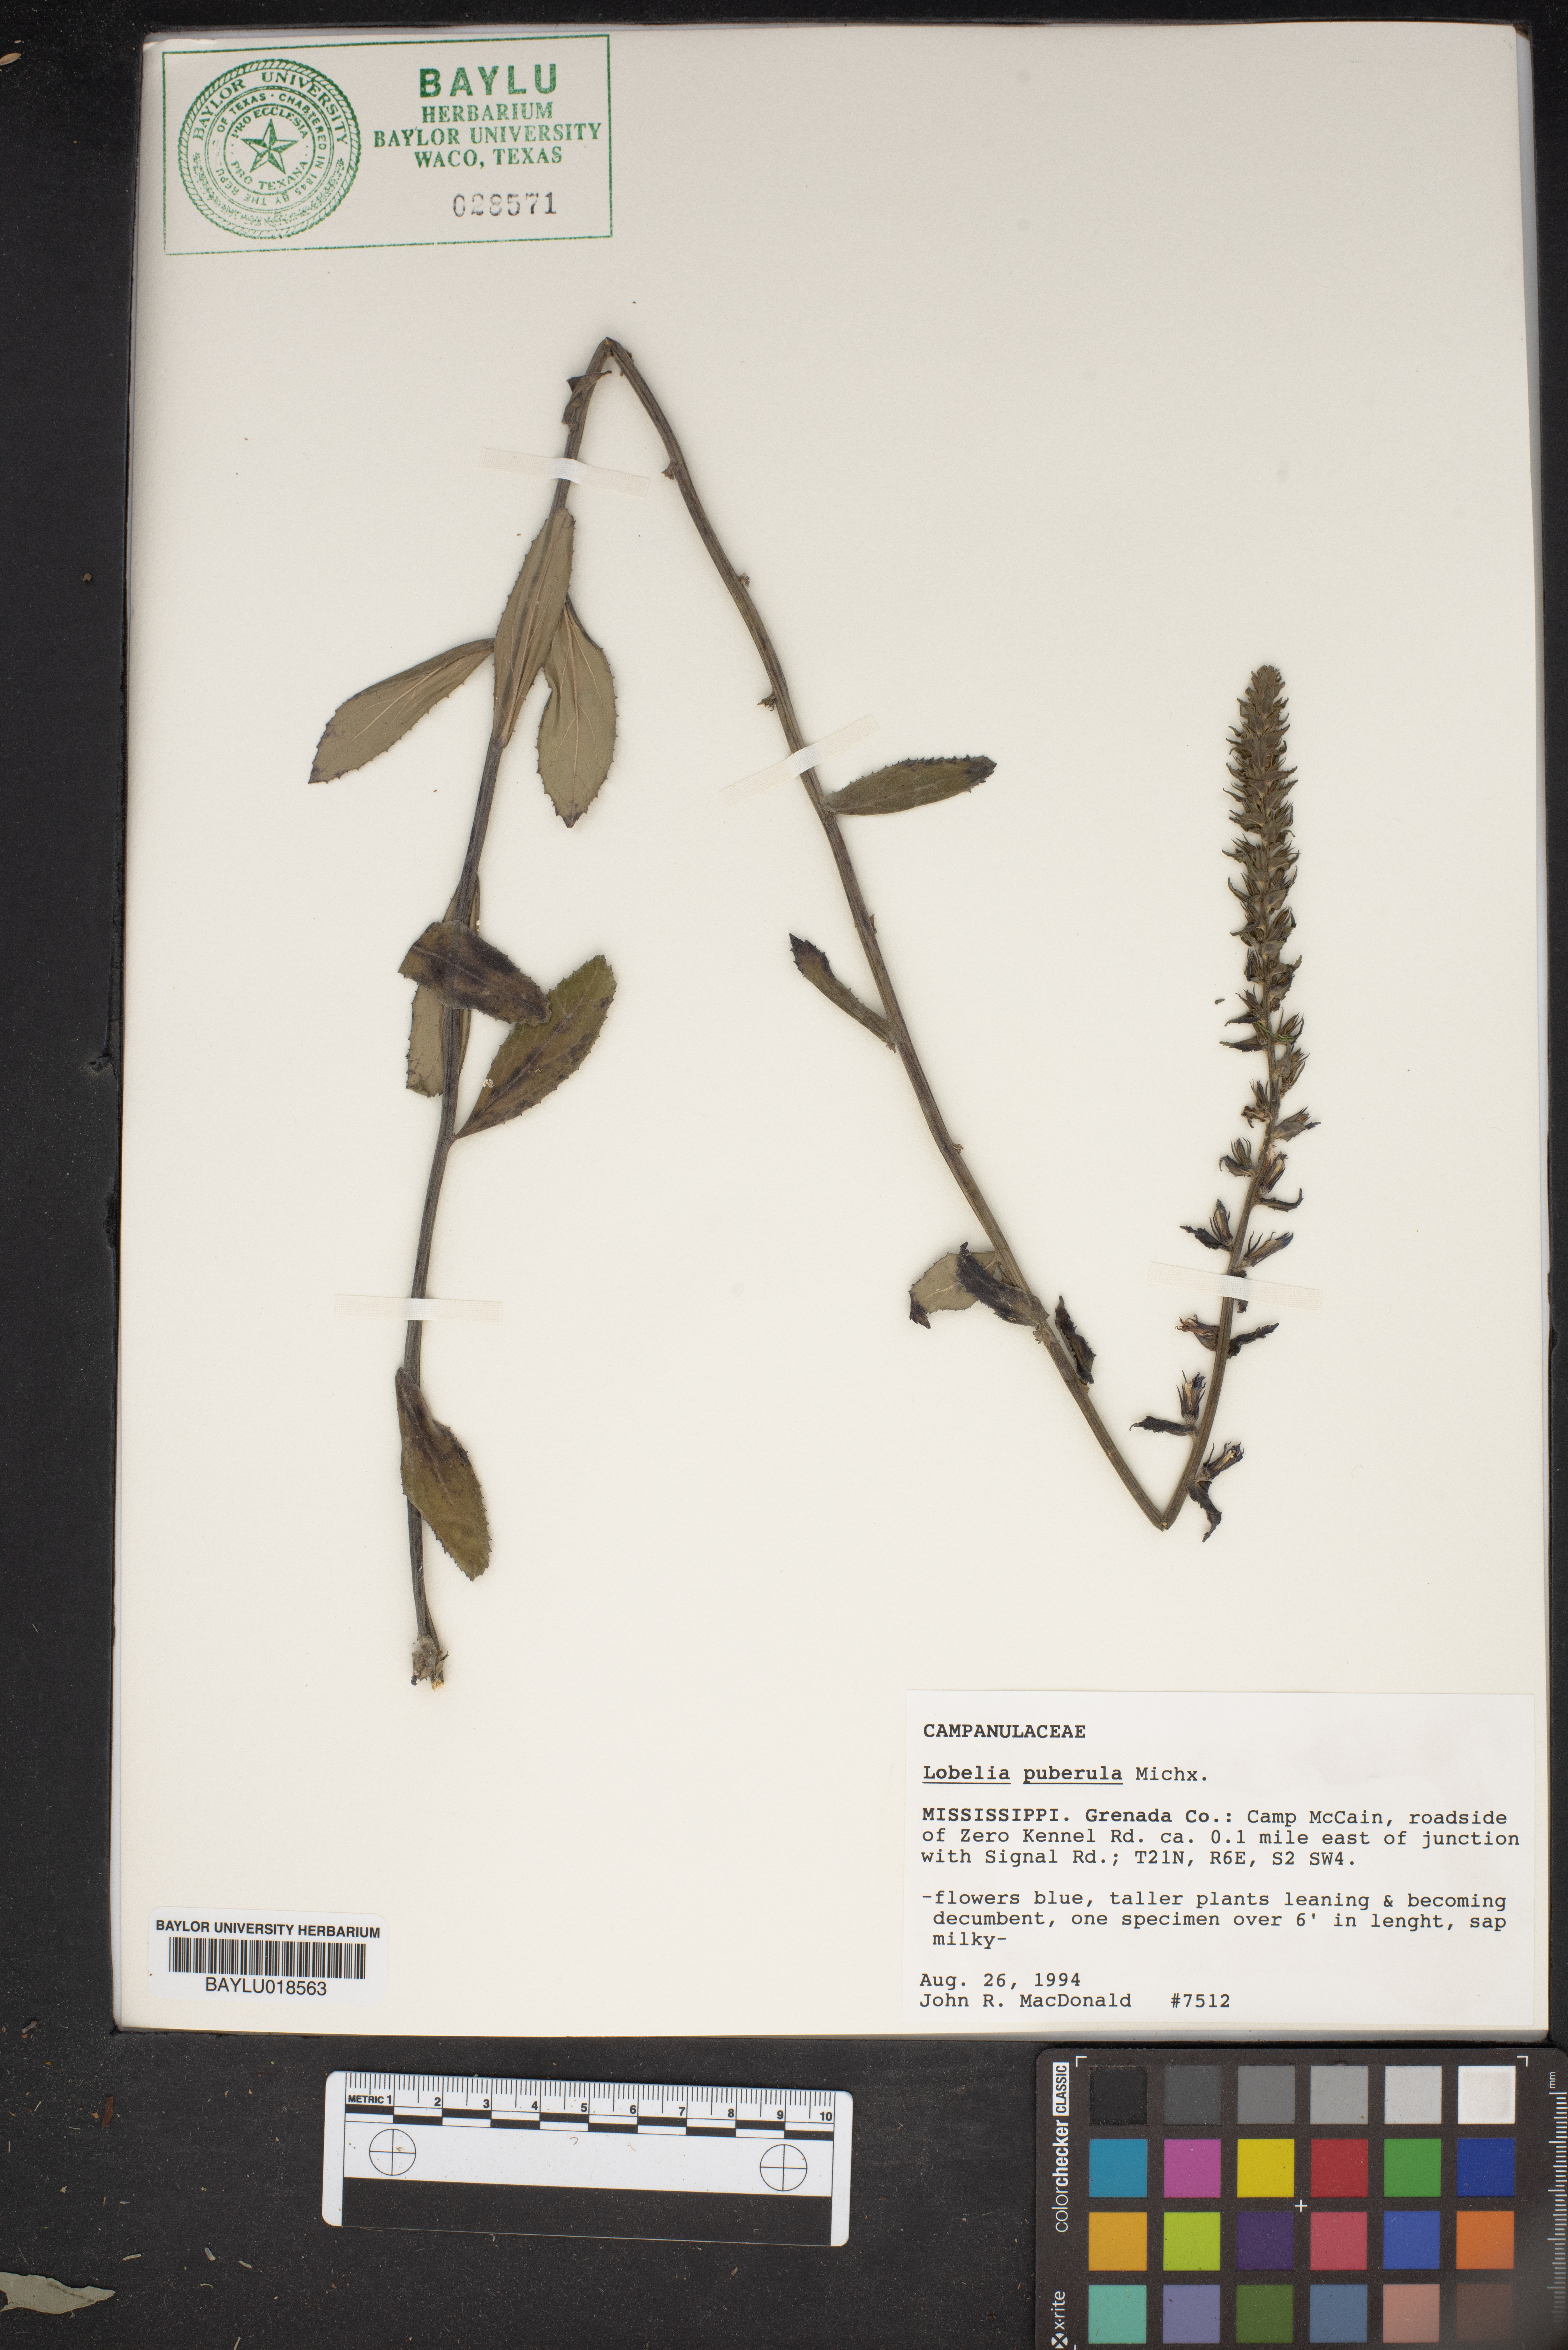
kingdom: Plantae
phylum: Tracheophyta
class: Magnoliopsida
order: Asterales
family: Campanulaceae
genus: Lobelia
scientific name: Lobelia puberula
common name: Purple dewdrop
